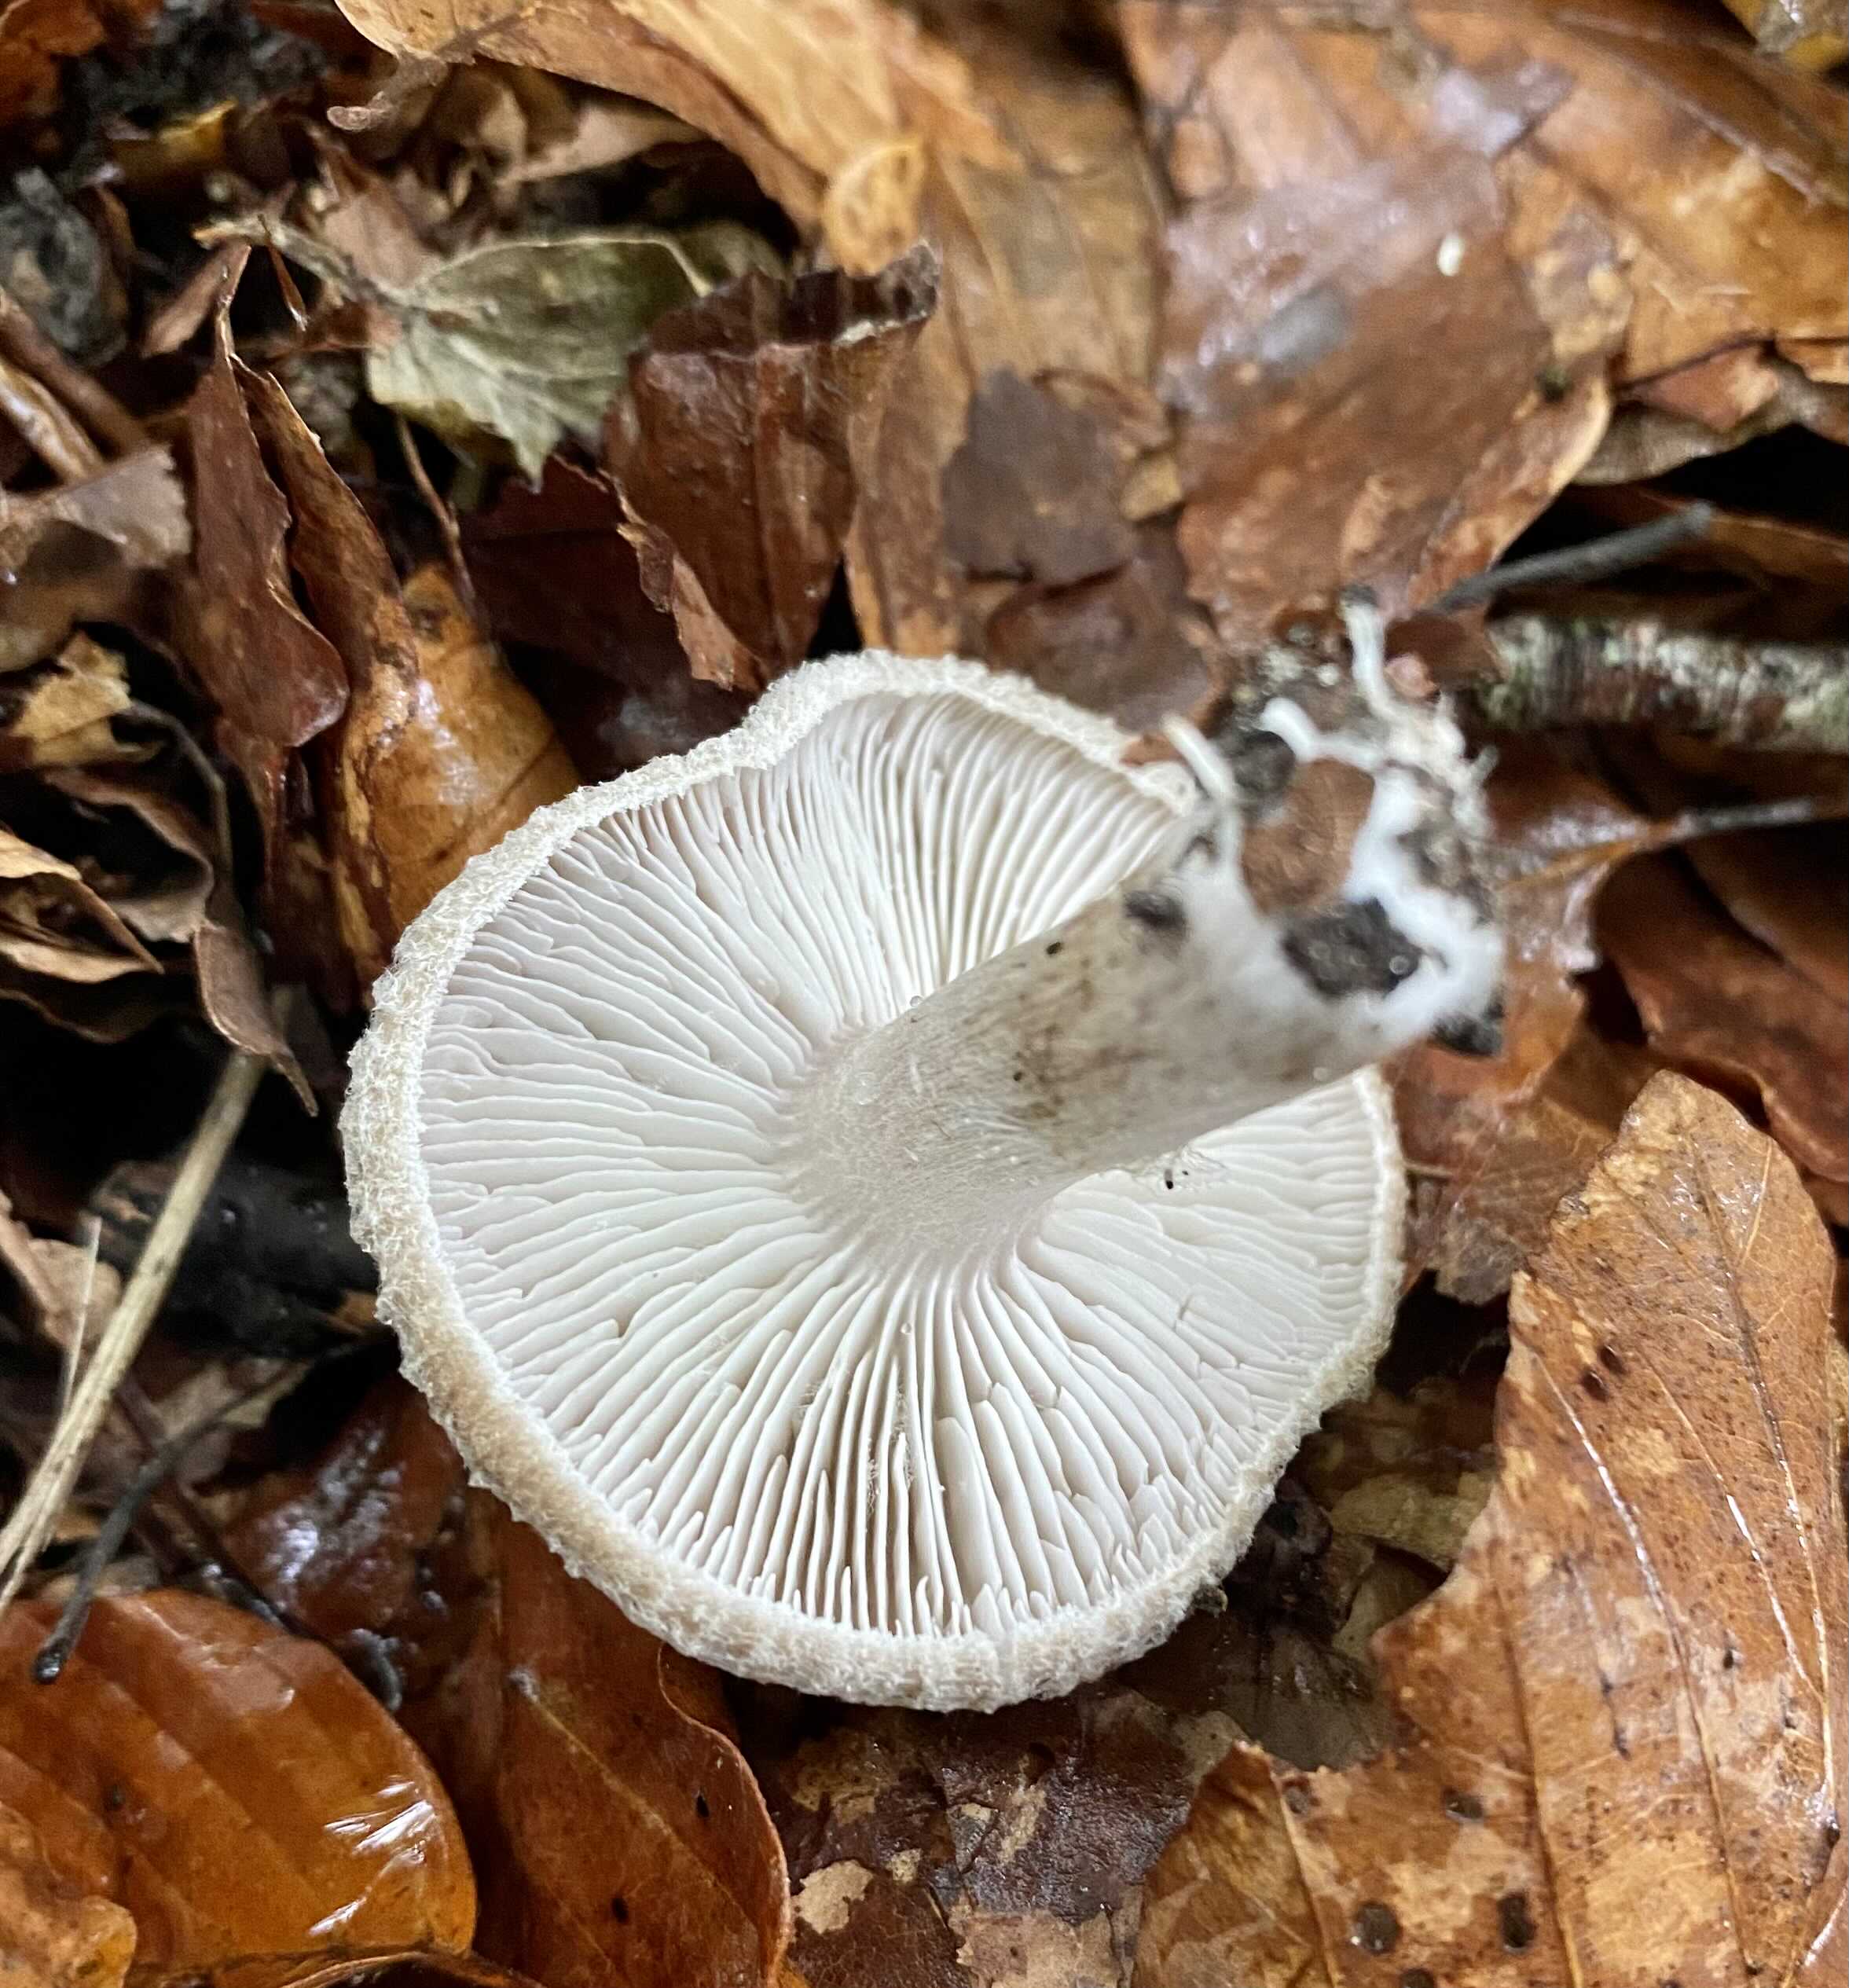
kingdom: Fungi
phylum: Basidiomycota
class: Agaricomycetes
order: Agaricales
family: Tricholomataceae
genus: Tricholoma
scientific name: Tricholoma atrosquamosum
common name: sortskællet ridderhat
